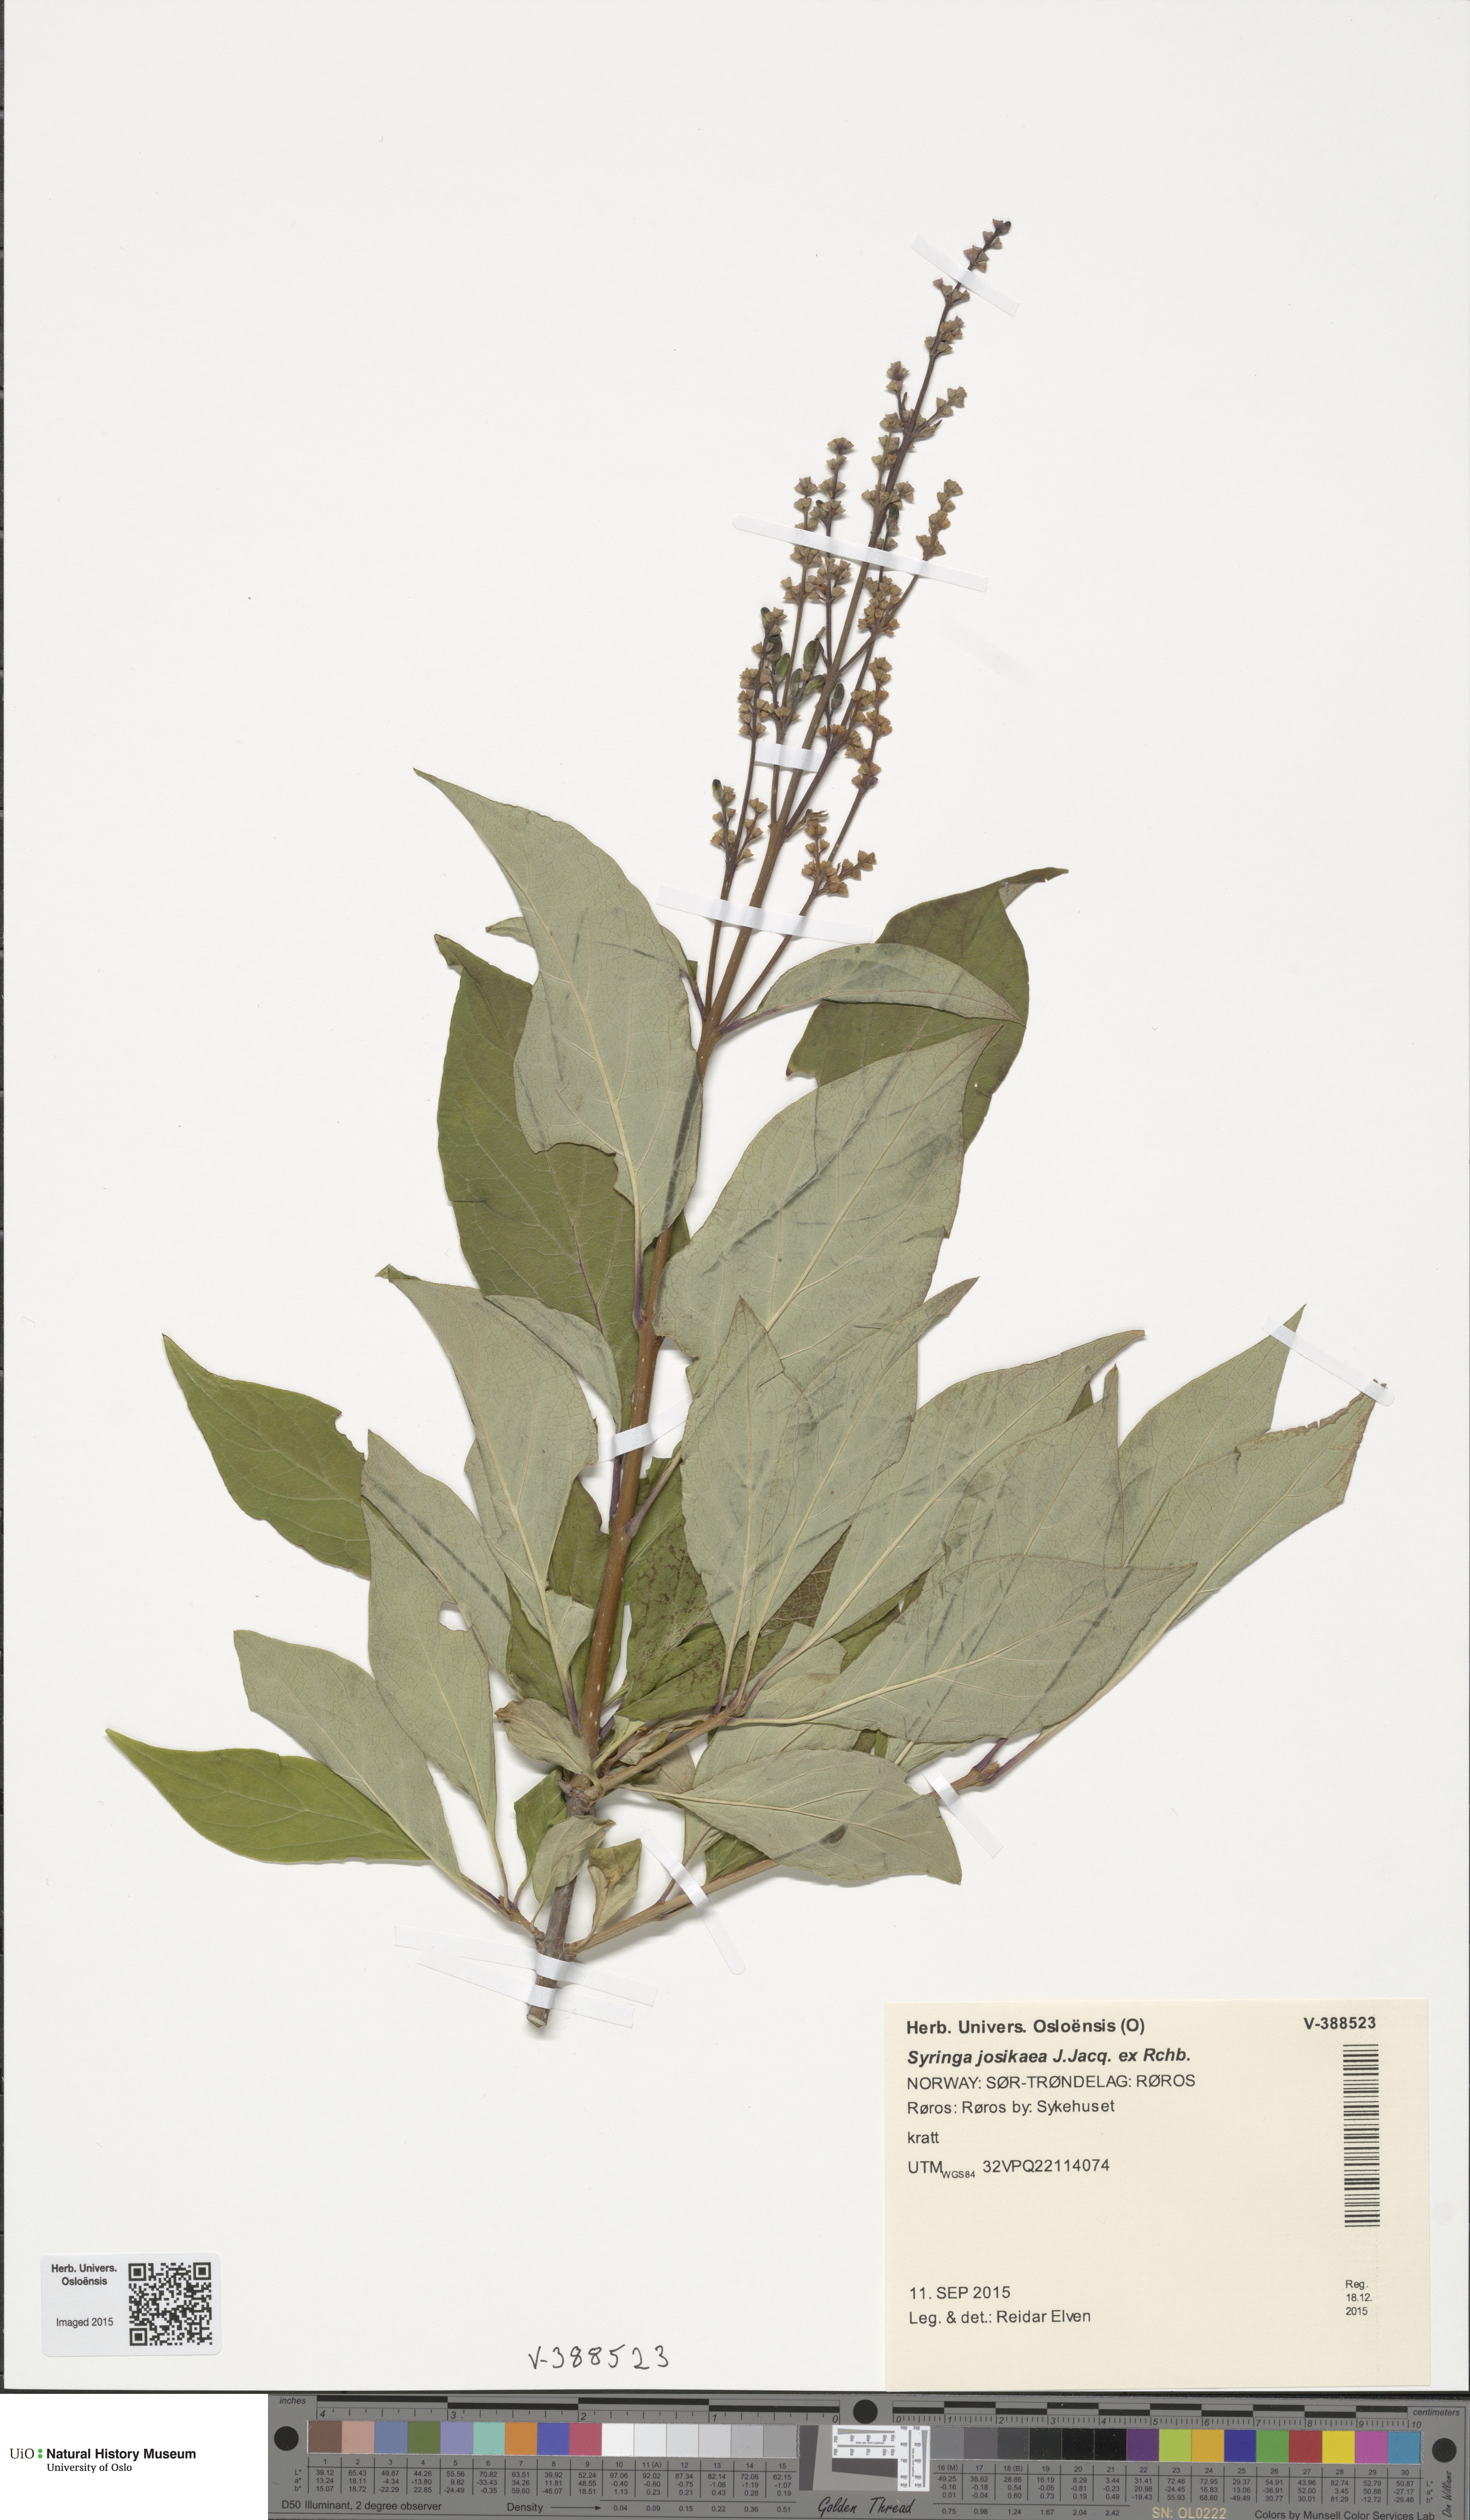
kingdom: Plantae
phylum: Tracheophyta
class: Magnoliopsida
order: Lamiales
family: Oleaceae
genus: Syringa
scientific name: Syringa josikaea
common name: Hungarian lilac
